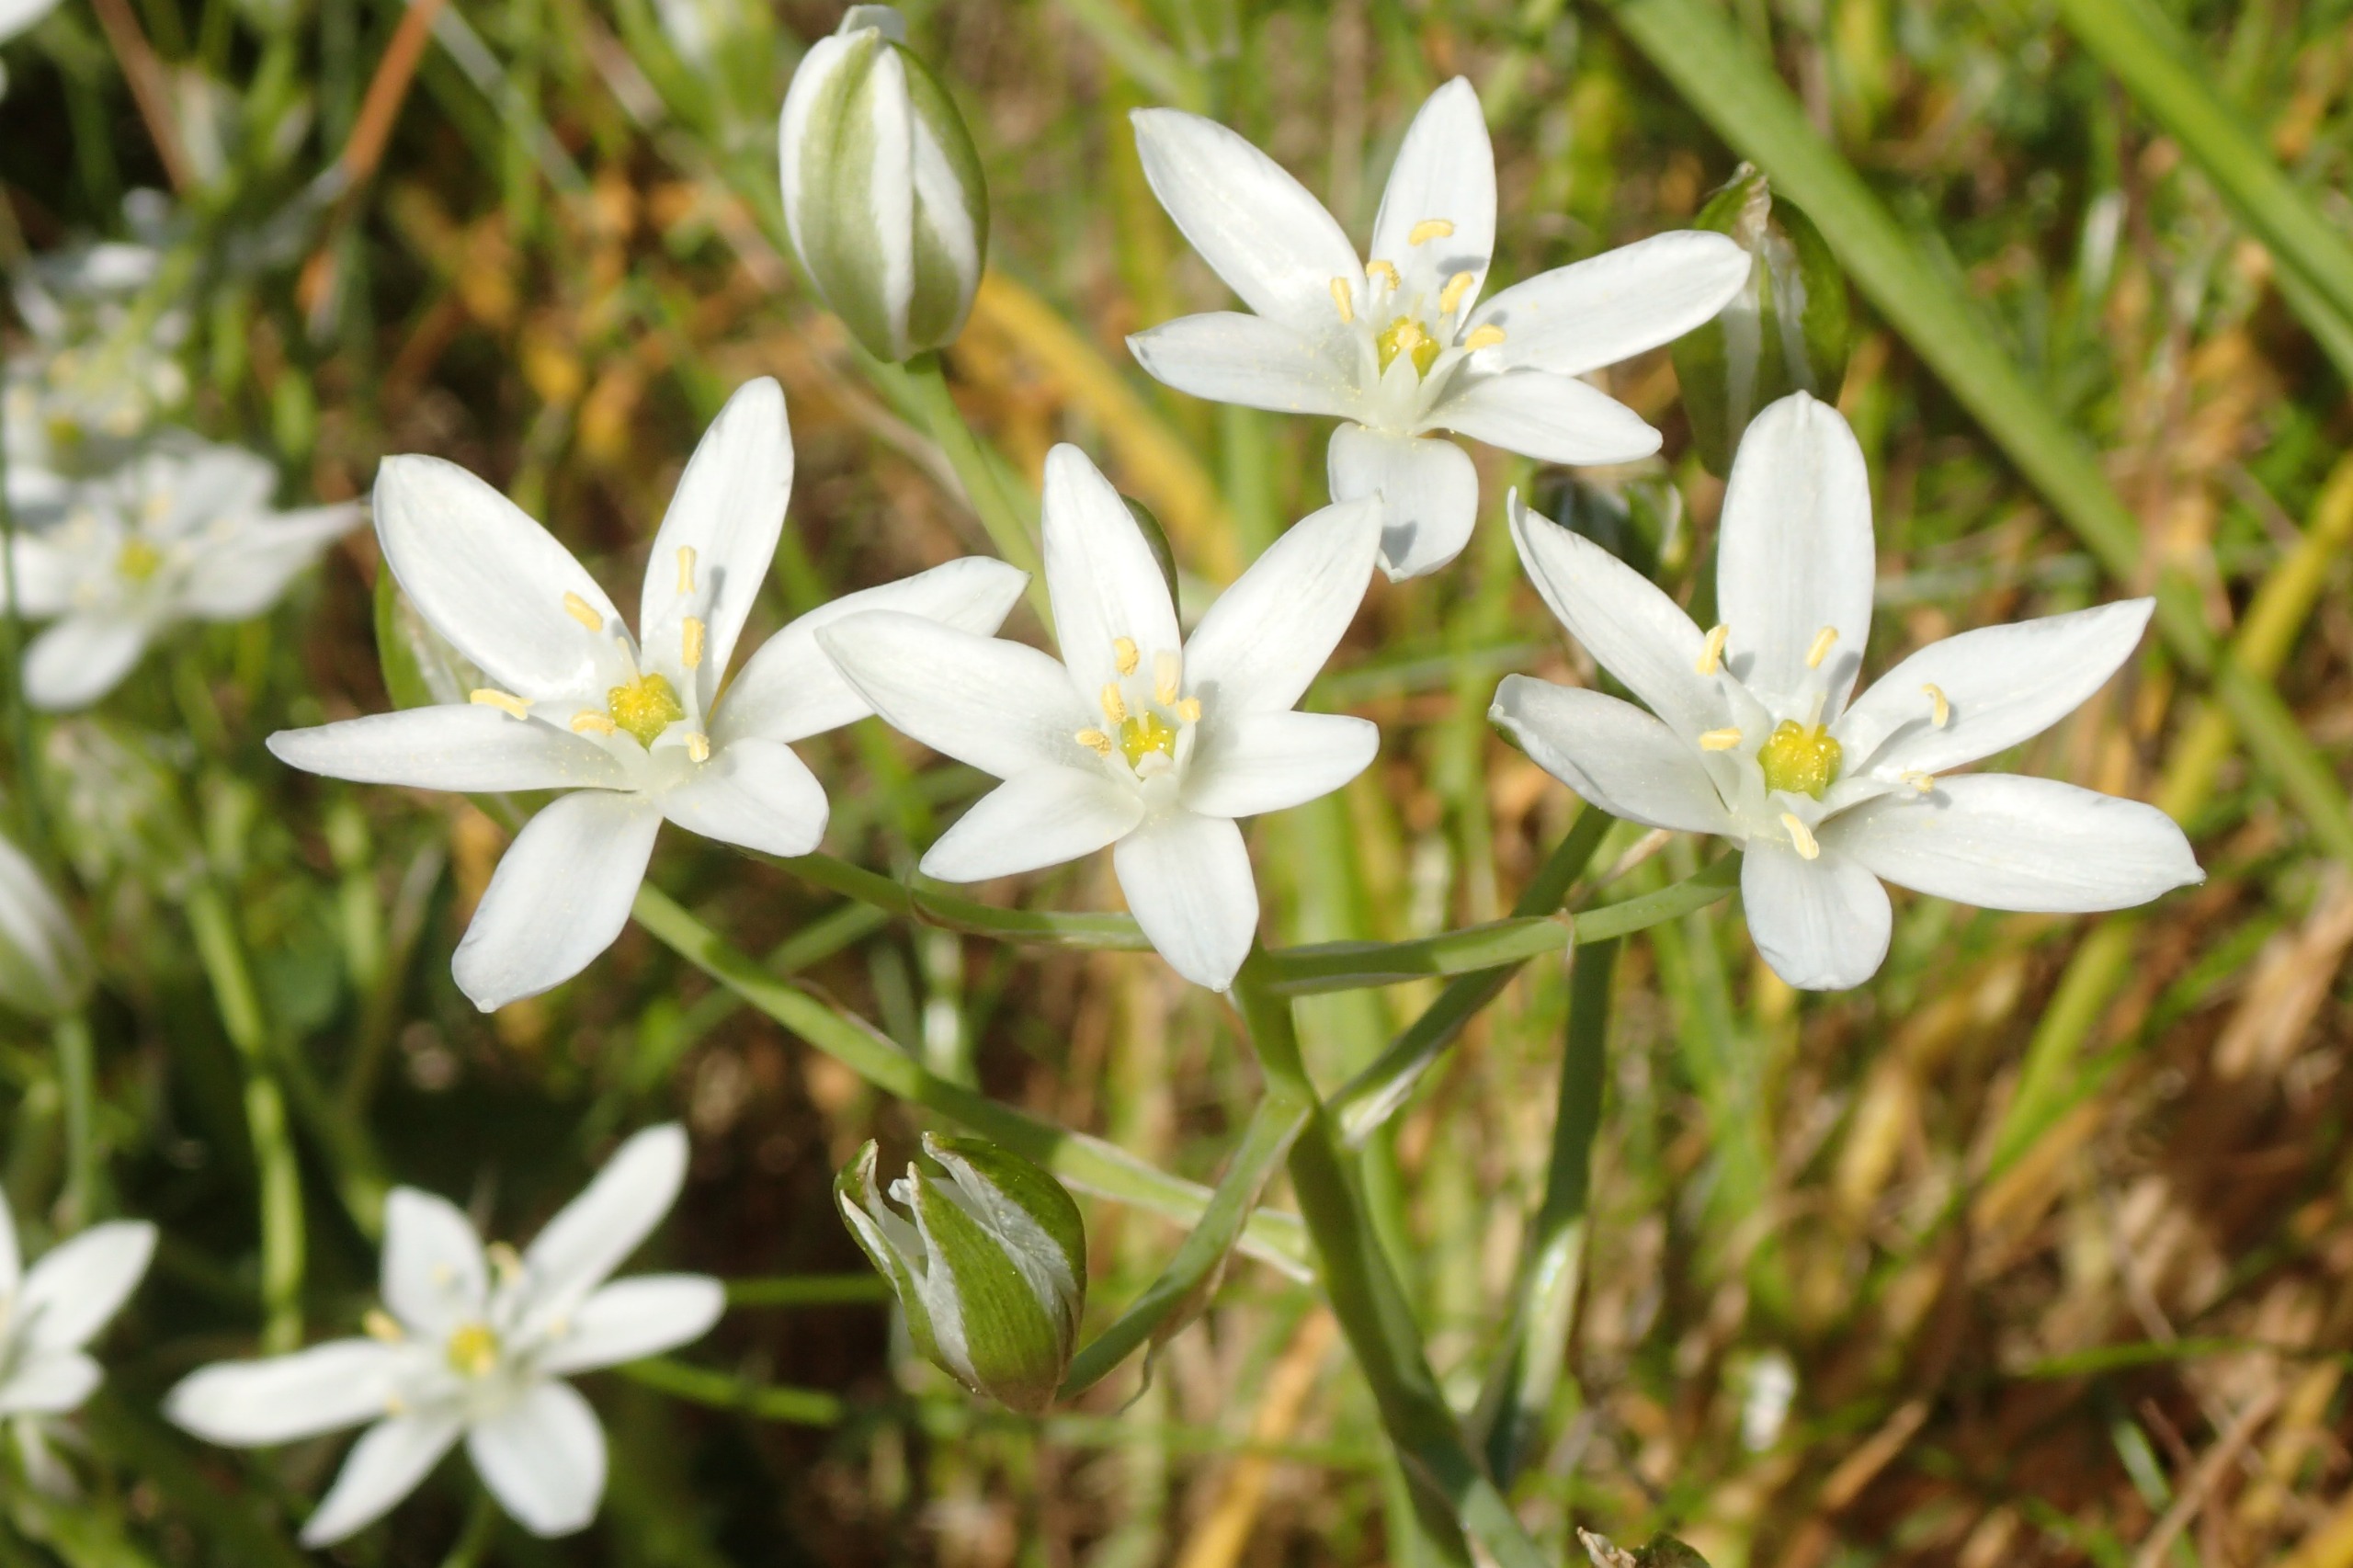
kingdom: Plantae
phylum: Tracheophyta
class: Liliopsida
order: Asparagales
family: Asparagaceae
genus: Ornithogalum
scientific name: Ornithogalum umbellatum
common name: Kost-fuglemælk
